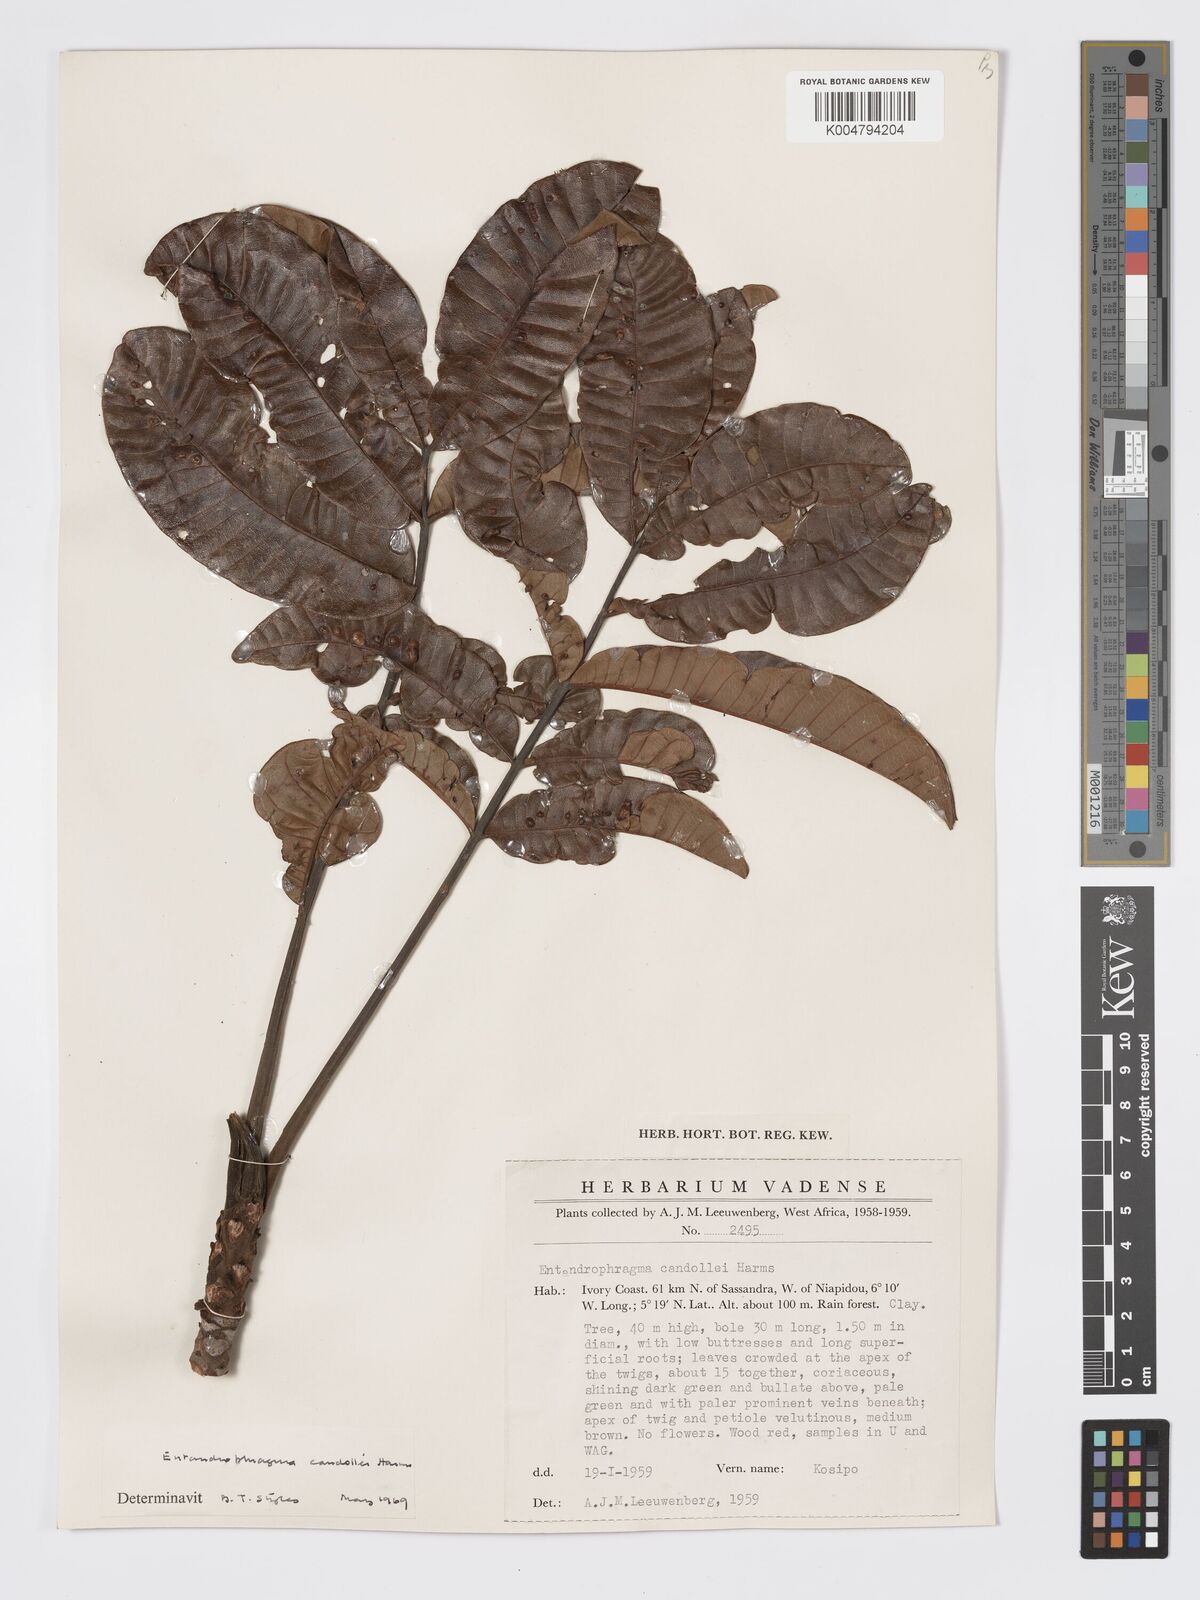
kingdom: Plantae
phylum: Tracheophyta
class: Magnoliopsida
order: Sapindales
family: Meliaceae
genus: Entandrophragma
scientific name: Entandrophragma candollei
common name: Cedar kokoti
